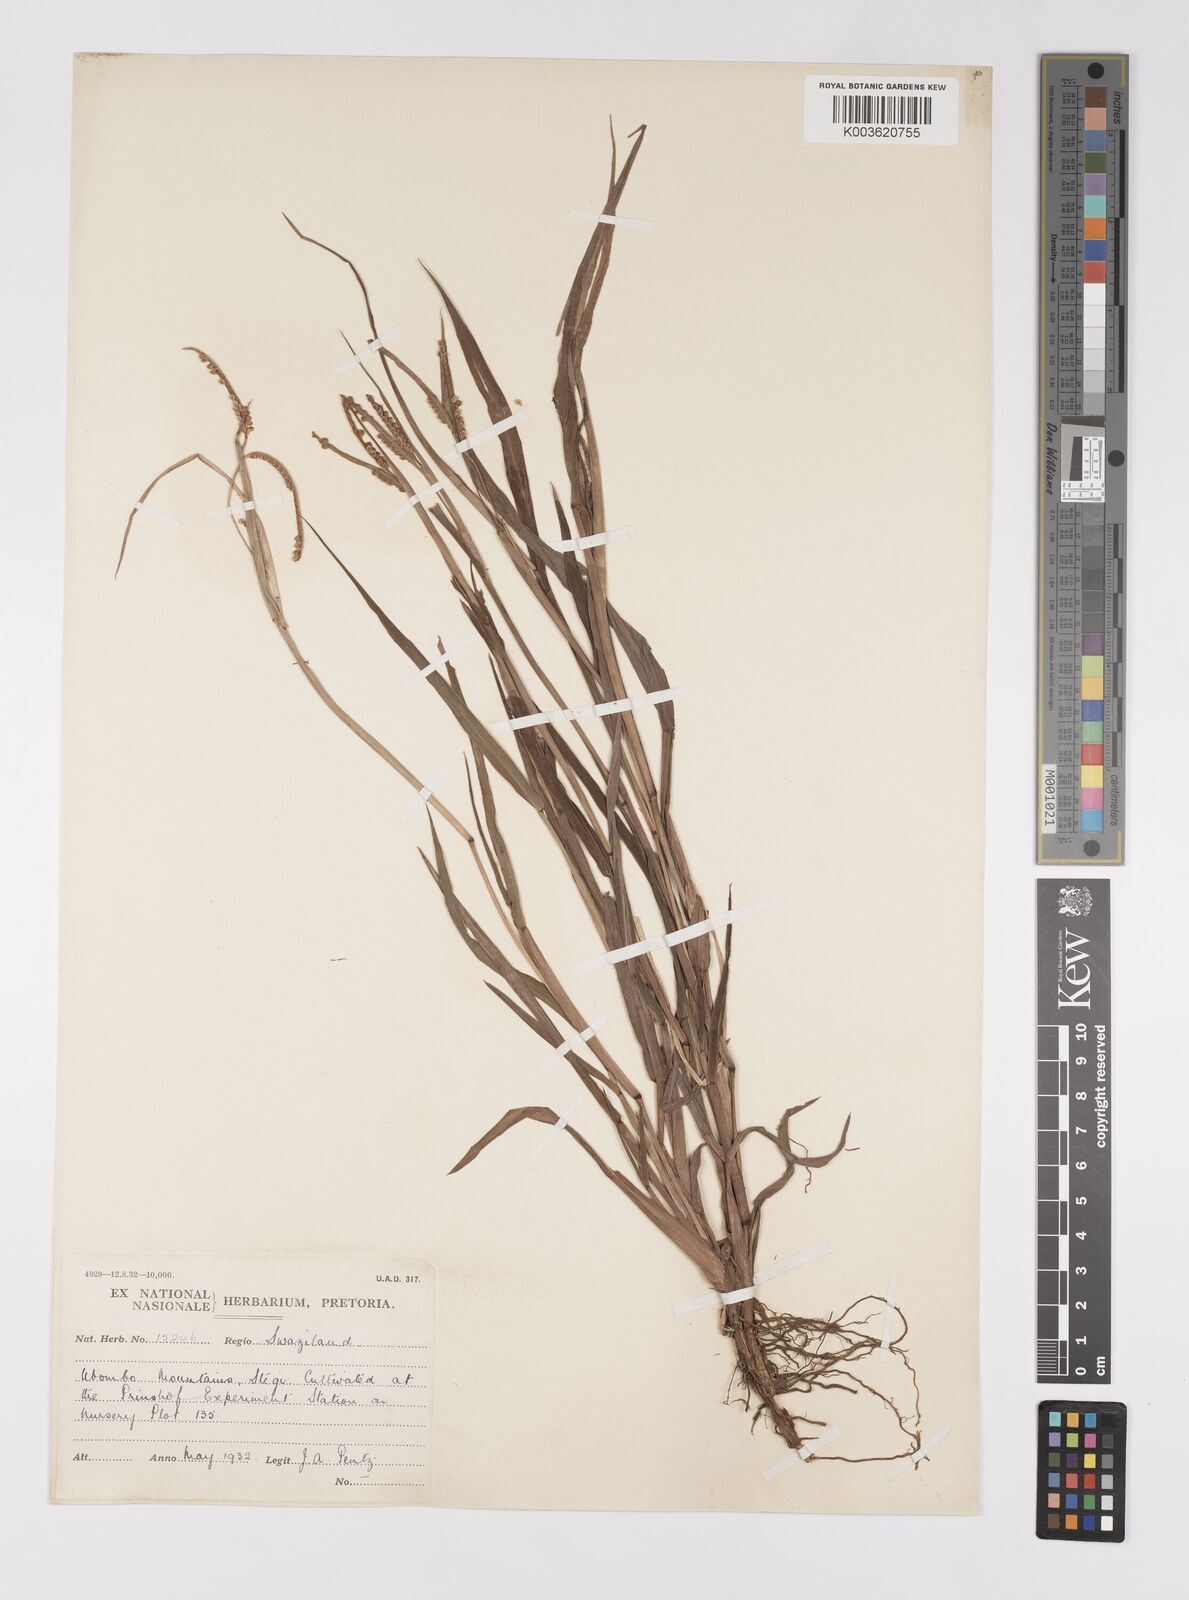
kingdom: Plantae
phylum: Tracheophyta
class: Liliopsida
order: Poales
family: Poaceae
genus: Paspalum
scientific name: Paspalum scrobiculatum
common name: Kodo millet
